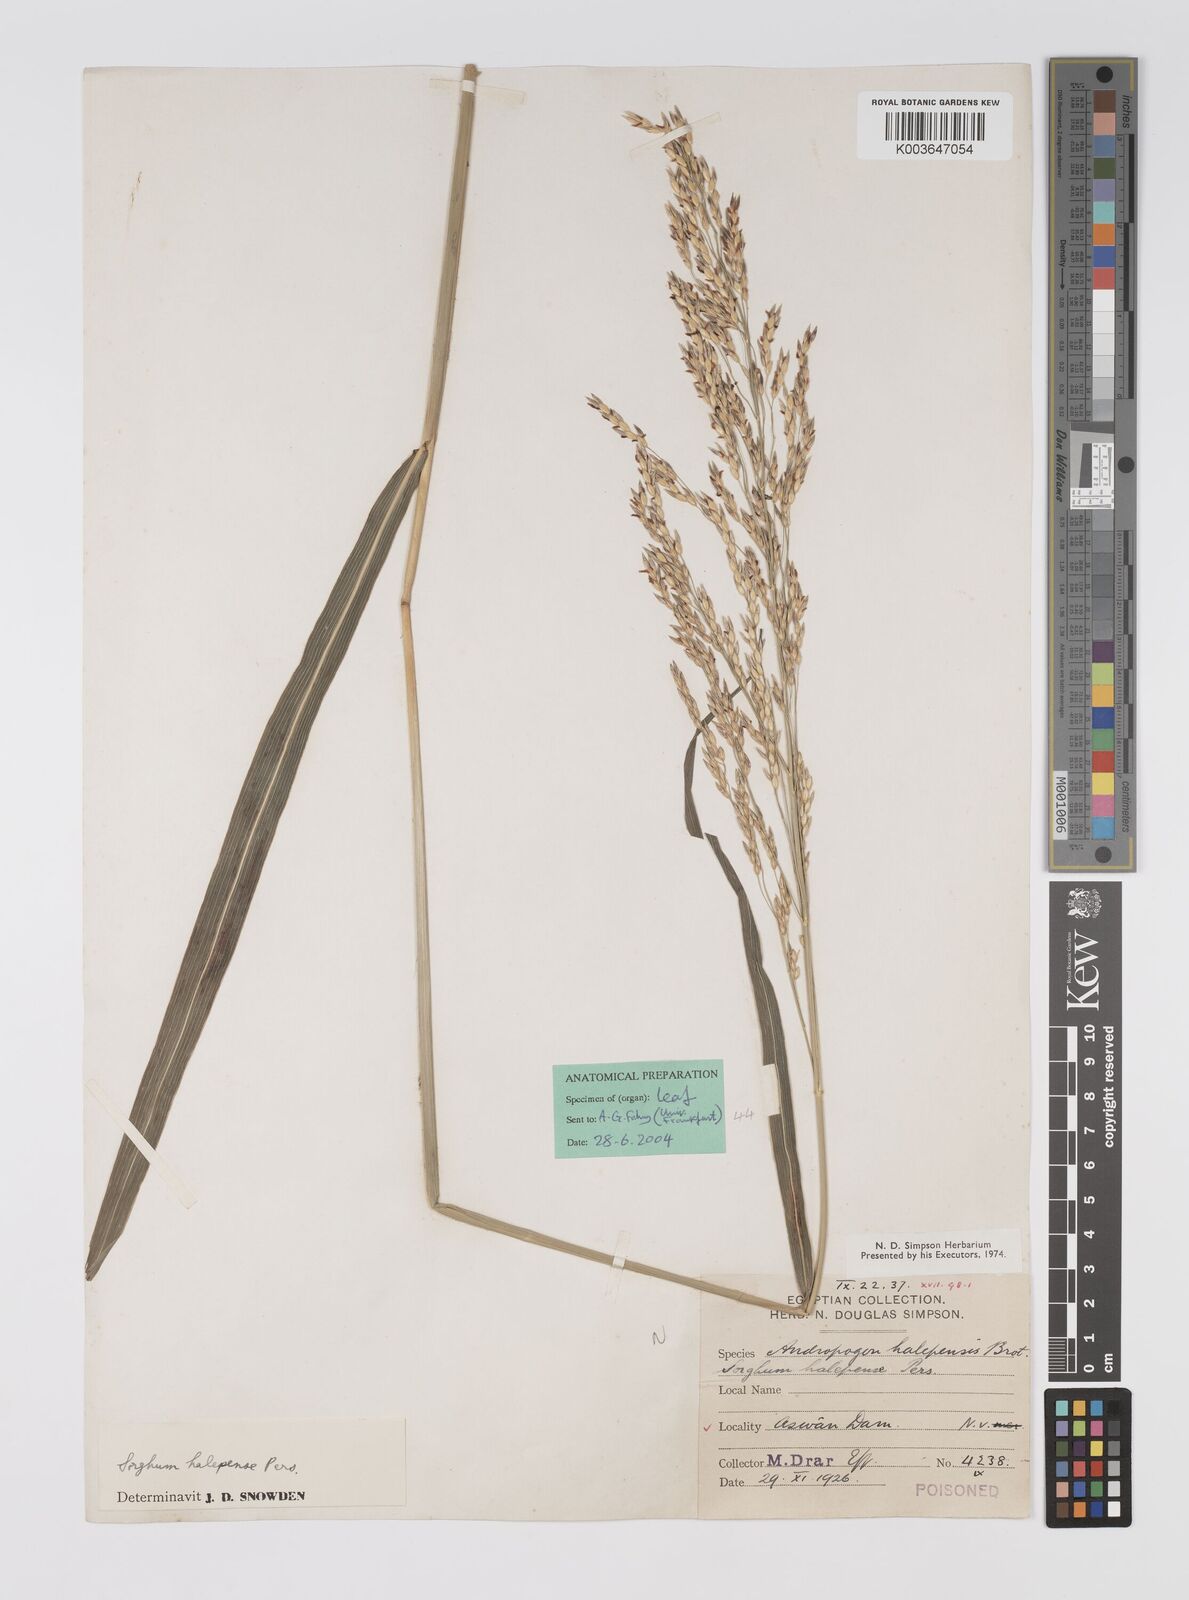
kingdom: Plantae
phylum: Tracheophyta
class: Liliopsida
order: Poales
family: Poaceae
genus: Sorghum
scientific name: Sorghum halepense
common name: Johnson-grass
